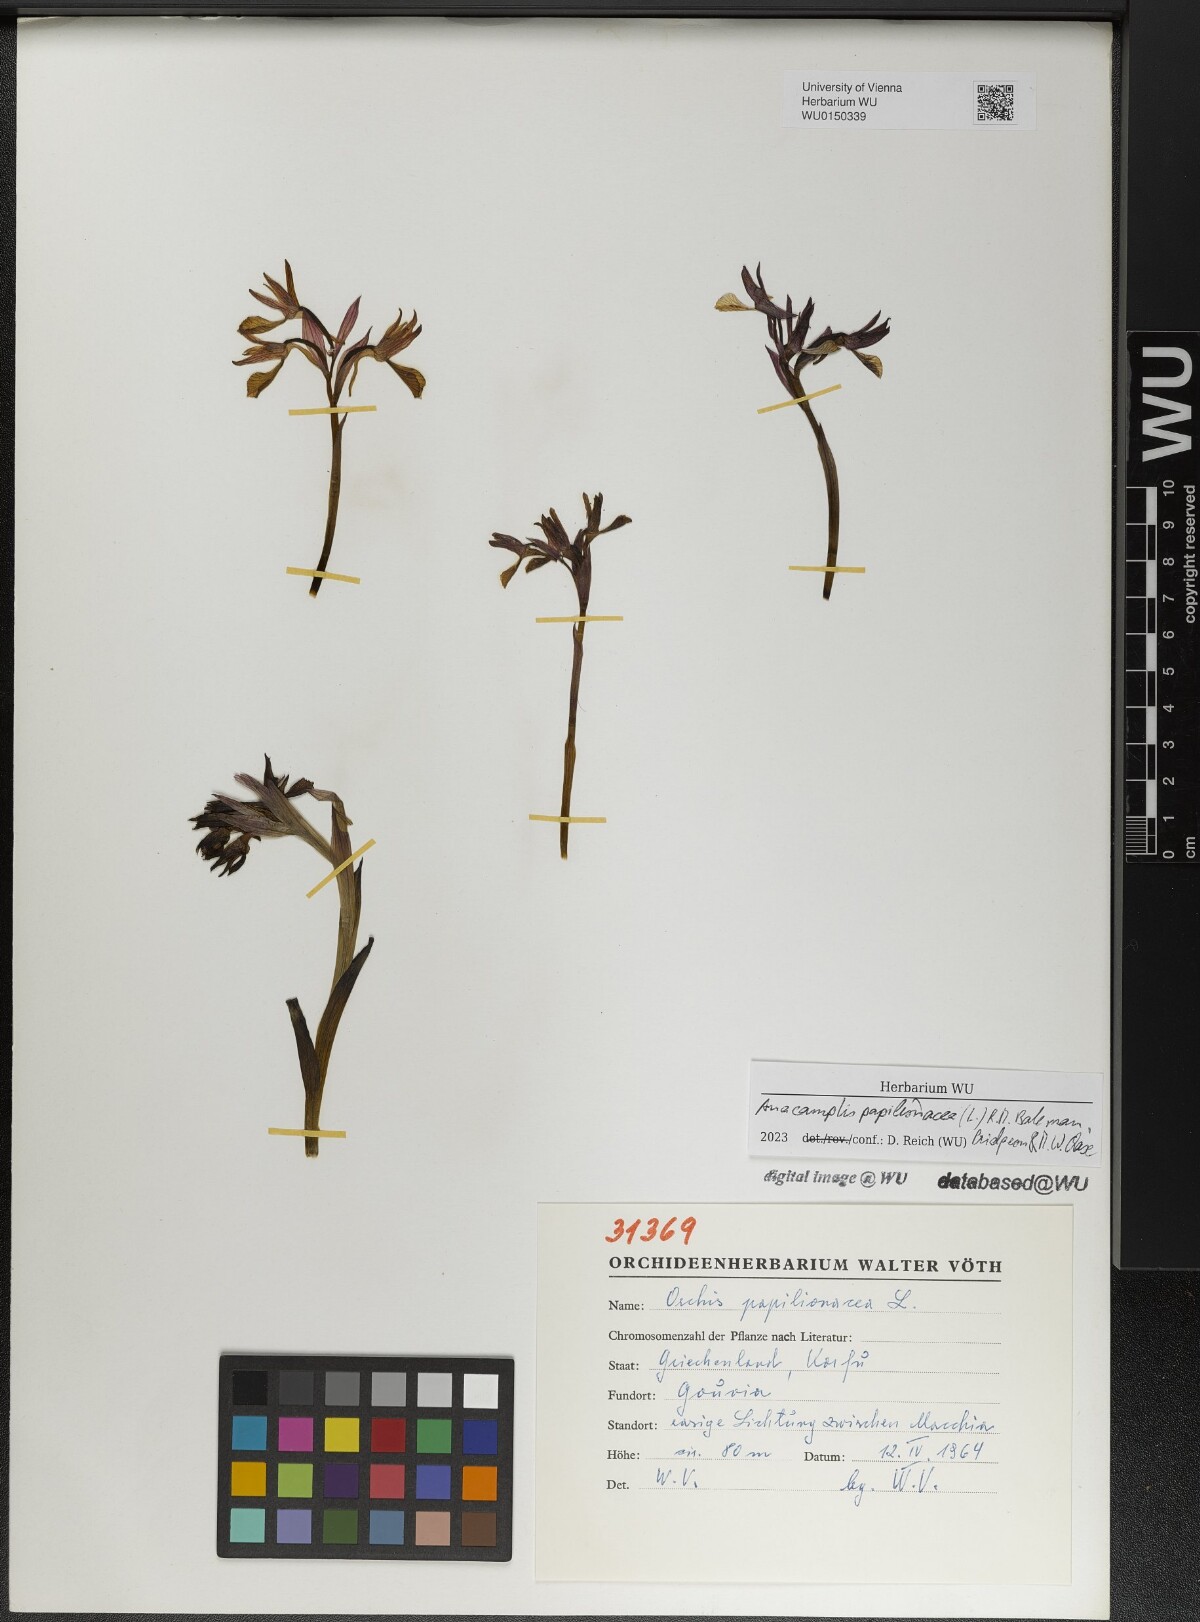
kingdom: Plantae
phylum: Tracheophyta
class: Liliopsida
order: Asparagales
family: Orchidaceae
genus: Anacamptis
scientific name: Anacamptis papilionacea
